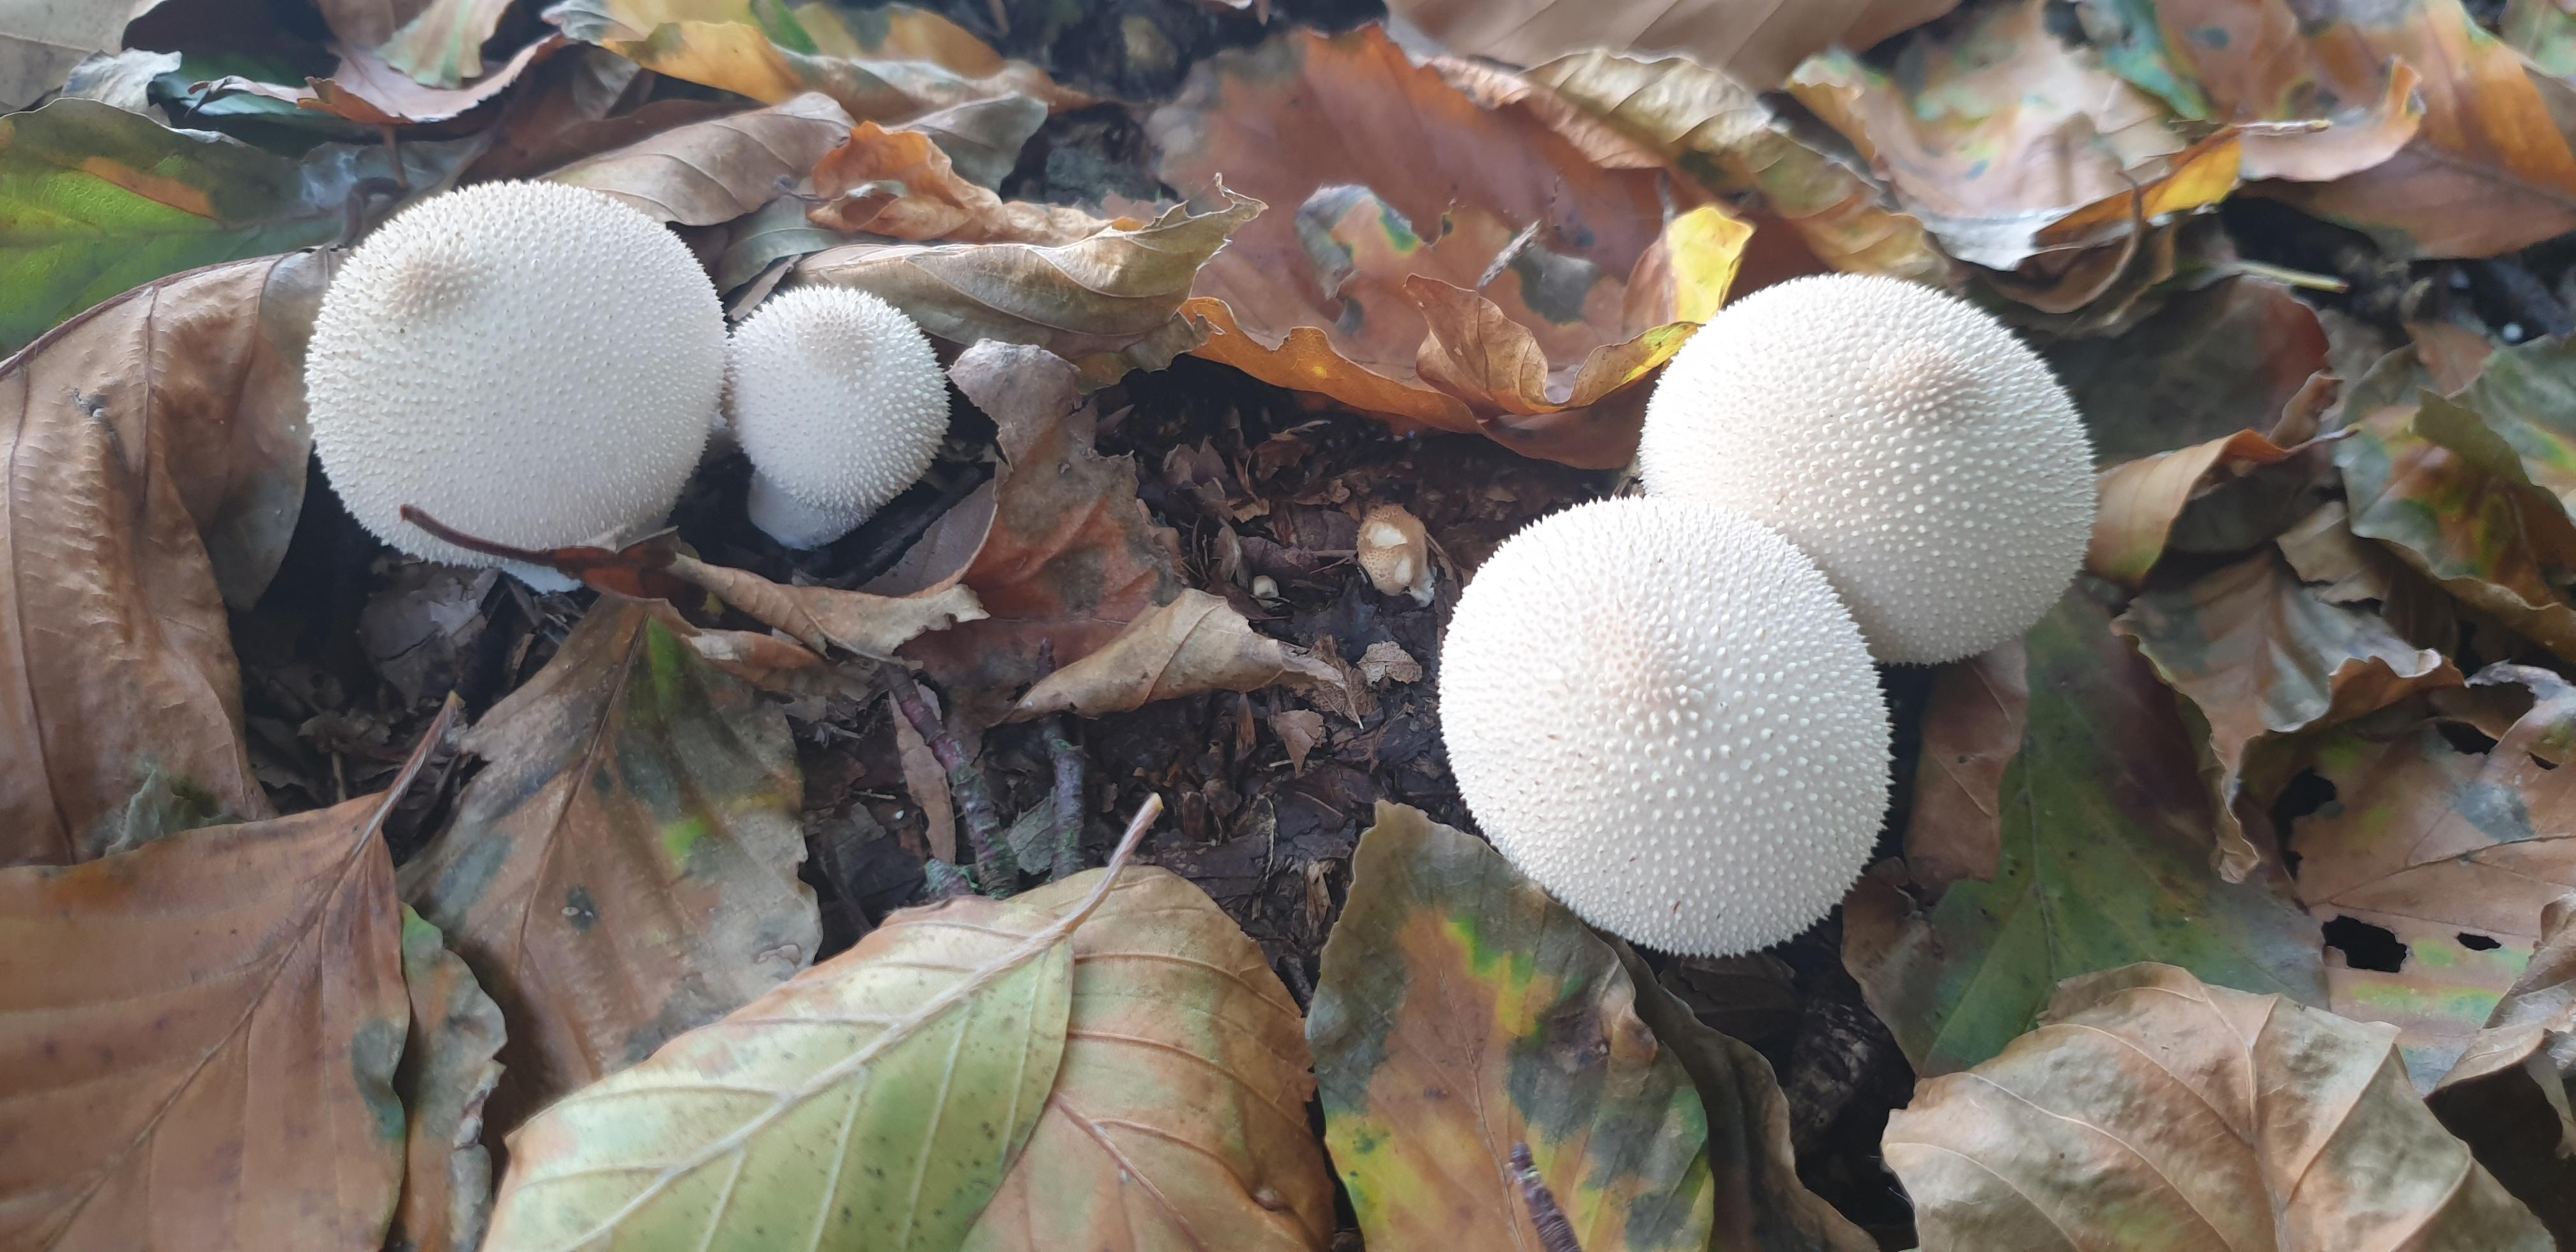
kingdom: Fungi
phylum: Basidiomycota
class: Agaricomycetes
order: Agaricales
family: Lycoperdaceae
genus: Lycoperdon
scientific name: Lycoperdon perlatum
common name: krystal-støvbold
